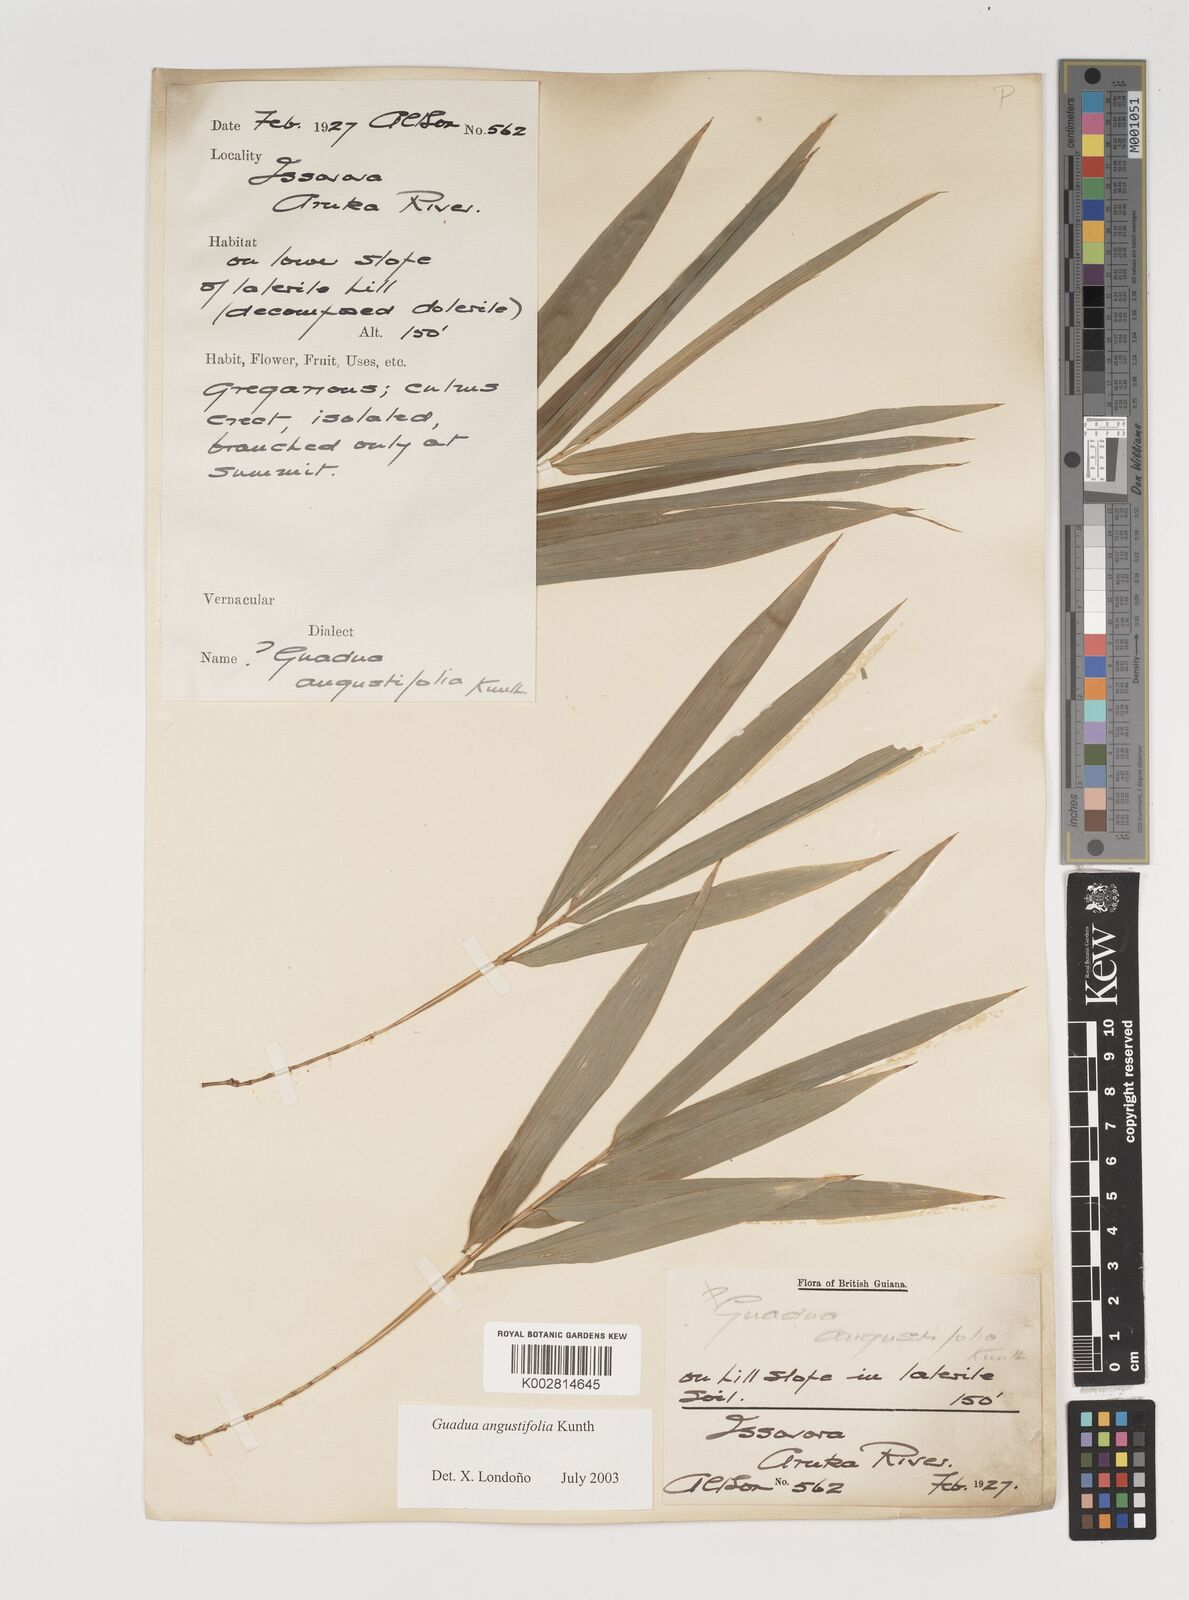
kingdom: Plantae
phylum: Tracheophyta
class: Liliopsida
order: Poales
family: Poaceae
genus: Guadua
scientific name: Guadua angustifolia
